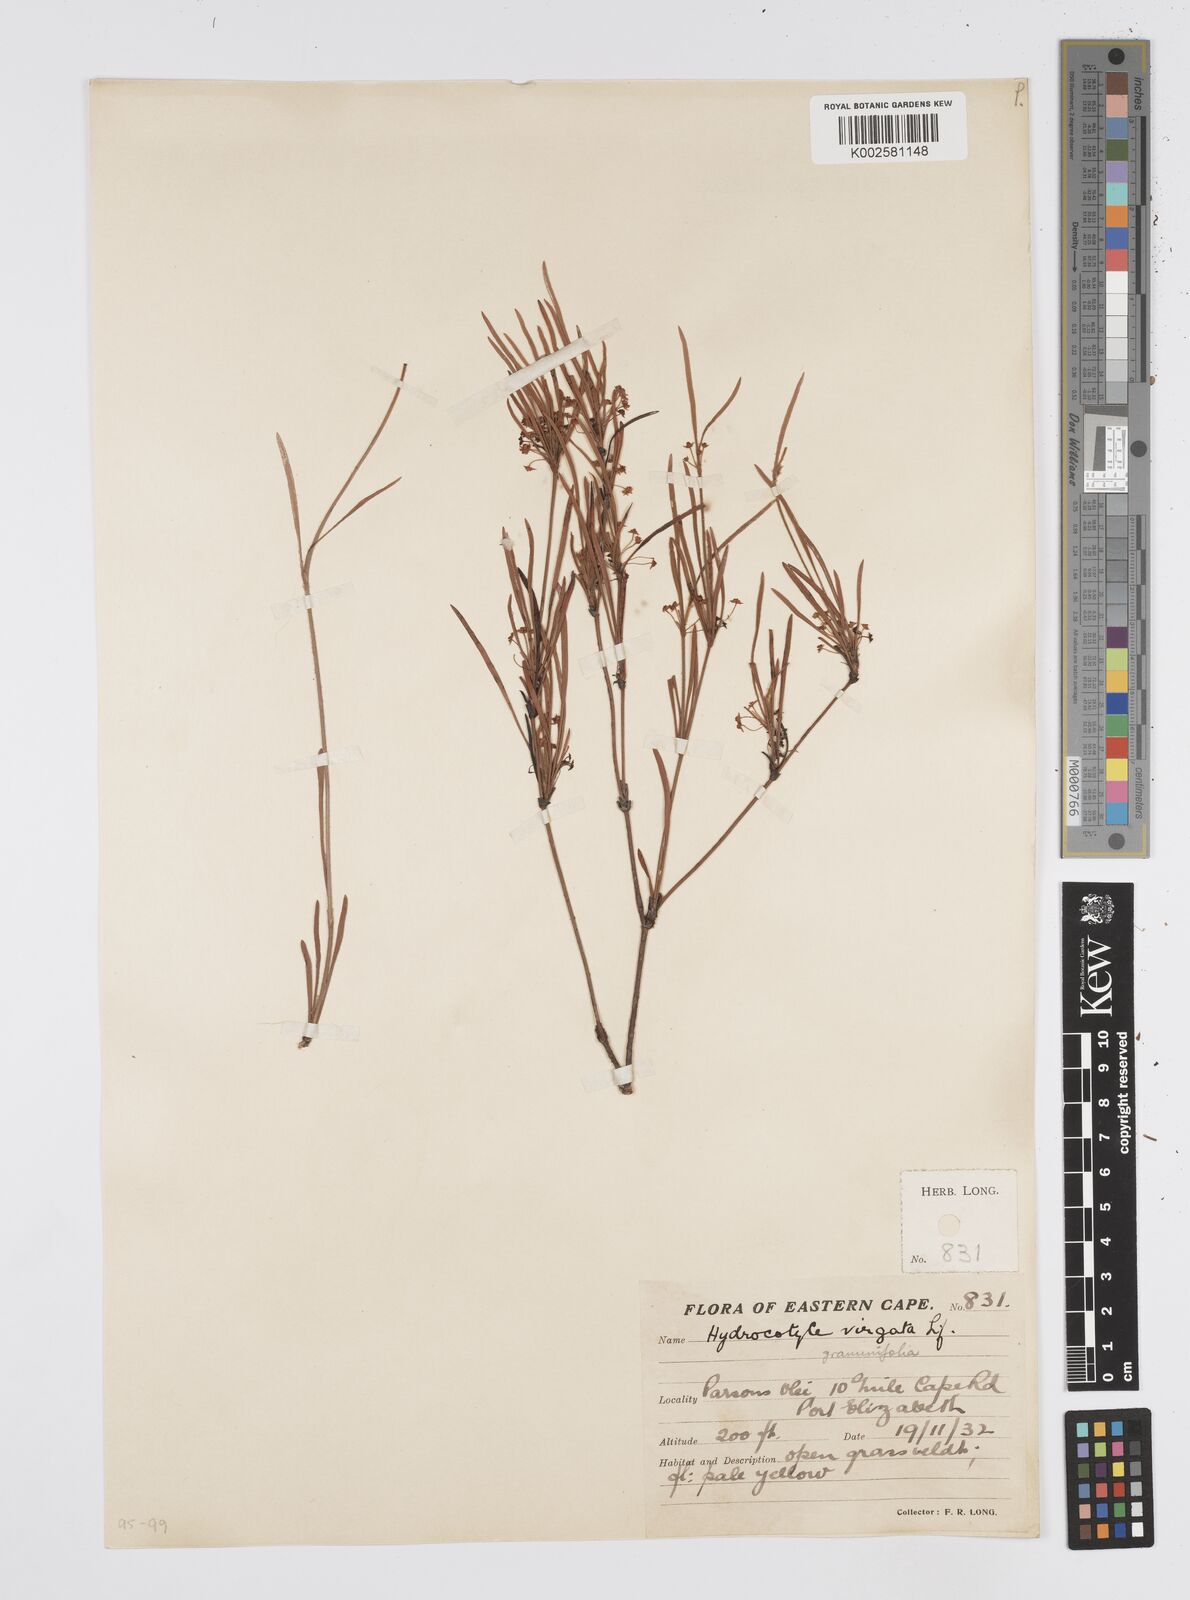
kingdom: Plantae
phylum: Tracheophyta
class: Magnoliopsida
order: Apiales
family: Apiaceae
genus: Centella
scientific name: Centella graminifolia
